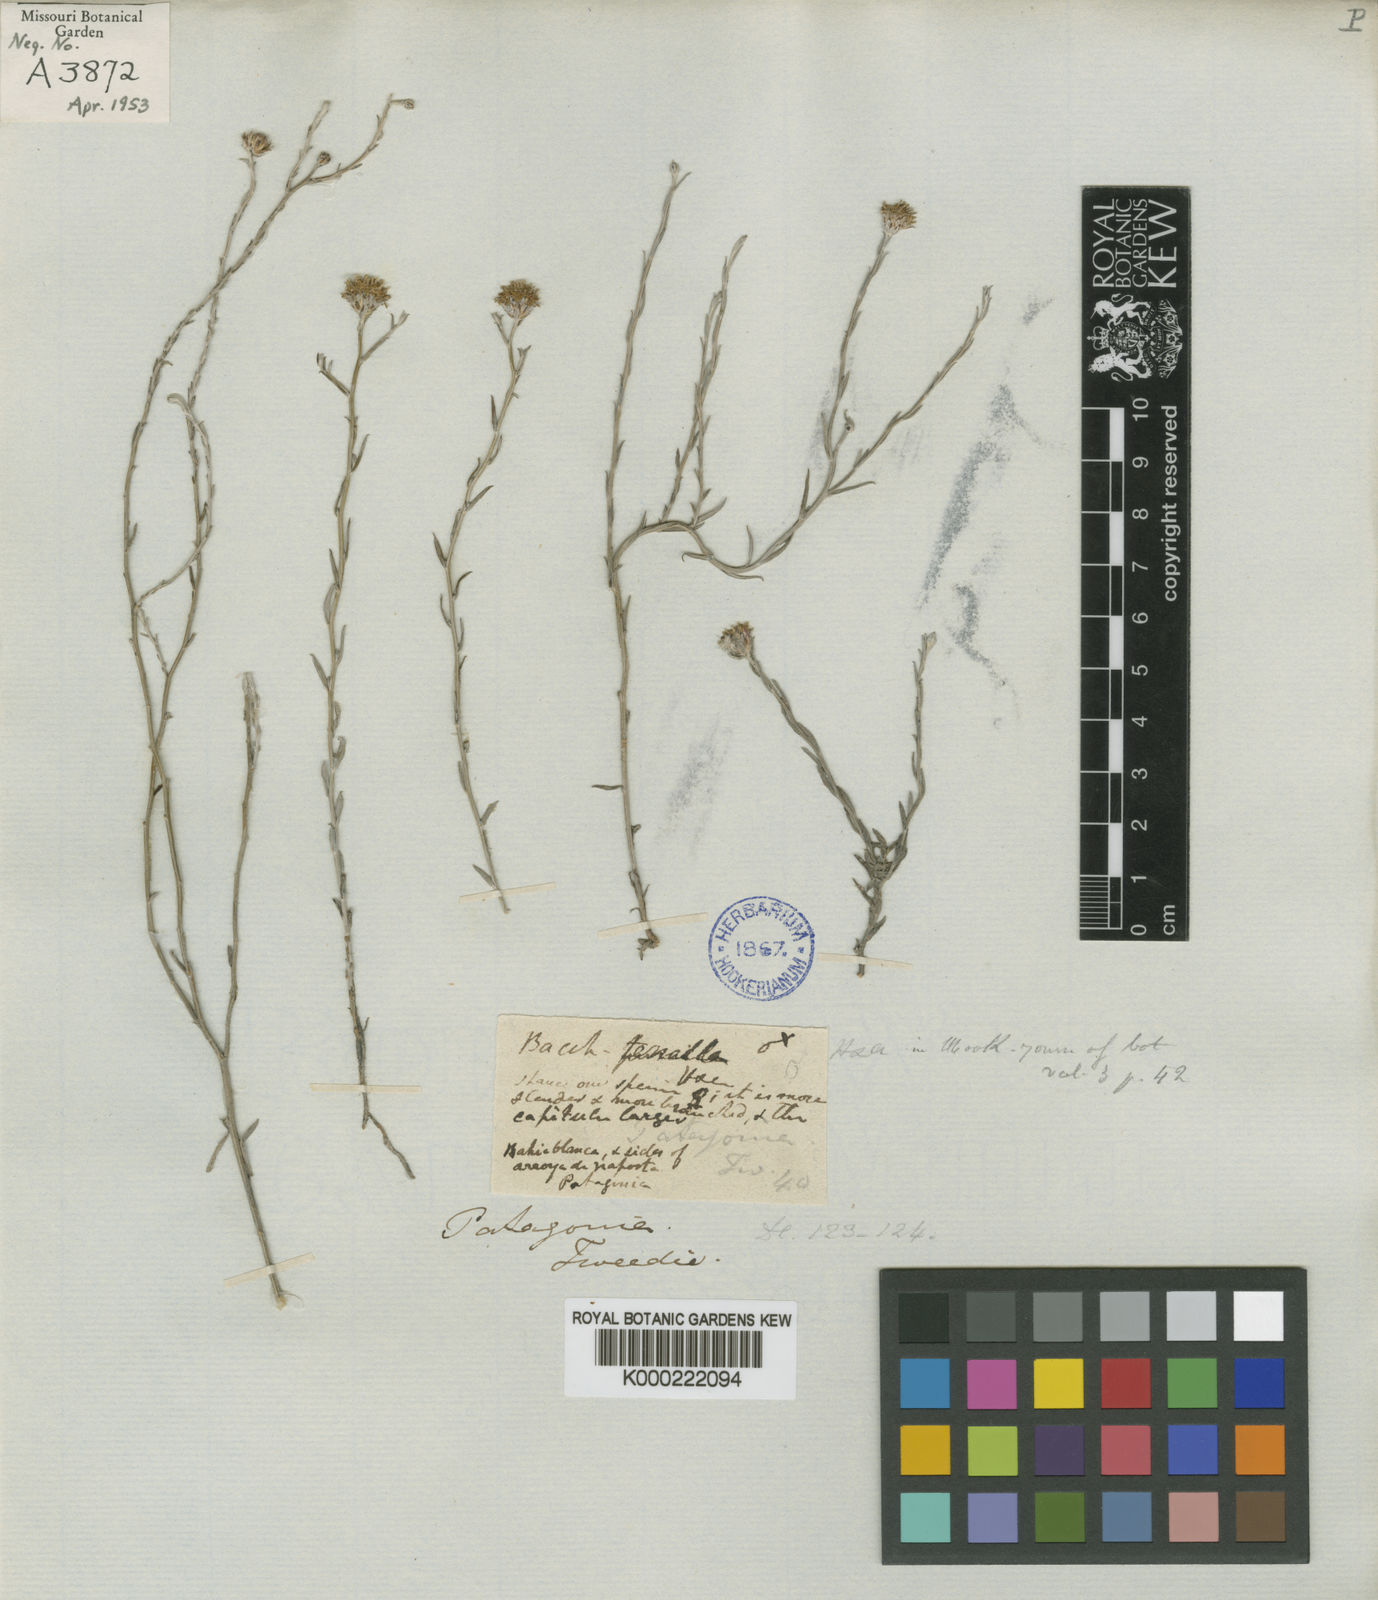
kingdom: Plantae
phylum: Tracheophyta
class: Magnoliopsida
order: Asterales
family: Asteraceae
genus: Pseudobaccharis
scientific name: Pseudobaccharis tenella
